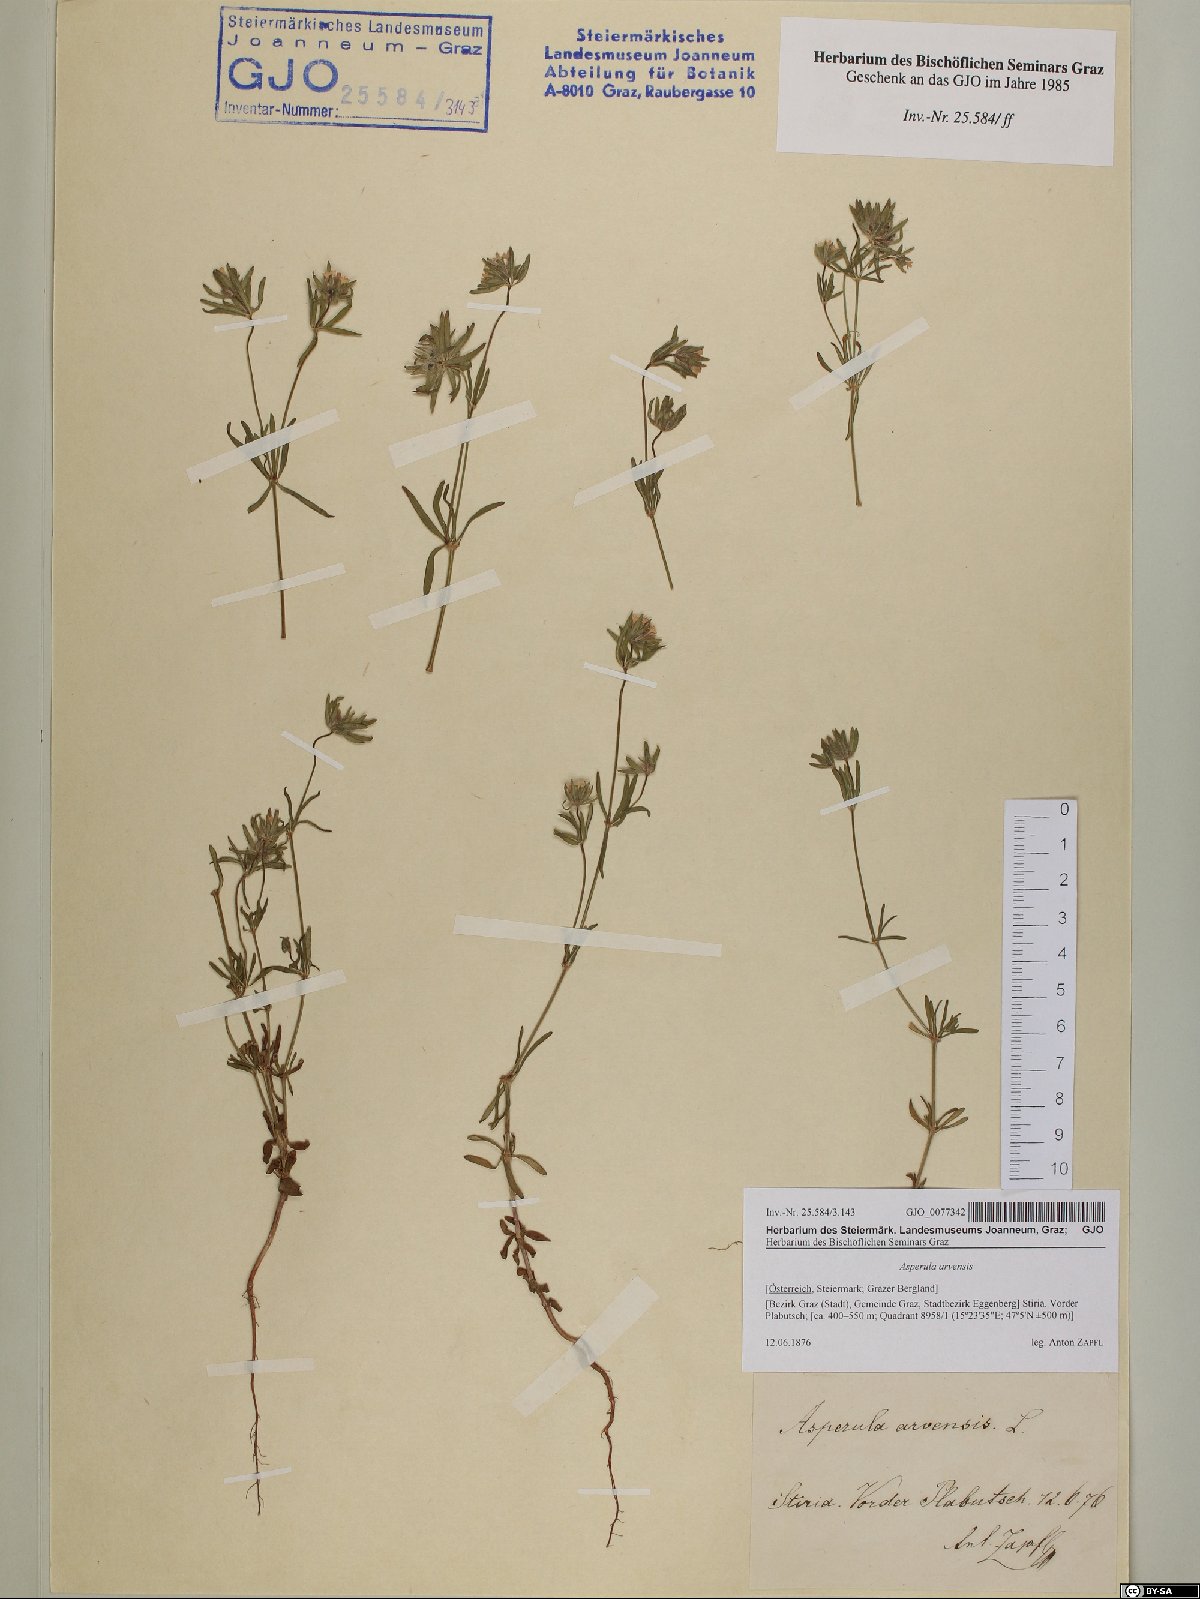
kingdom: Plantae
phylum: Tracheophyta
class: Magnoliopsida
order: Gentianales
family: Rubiaceae
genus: Asperula
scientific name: Asperula arvensis
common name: Blue woodruff
